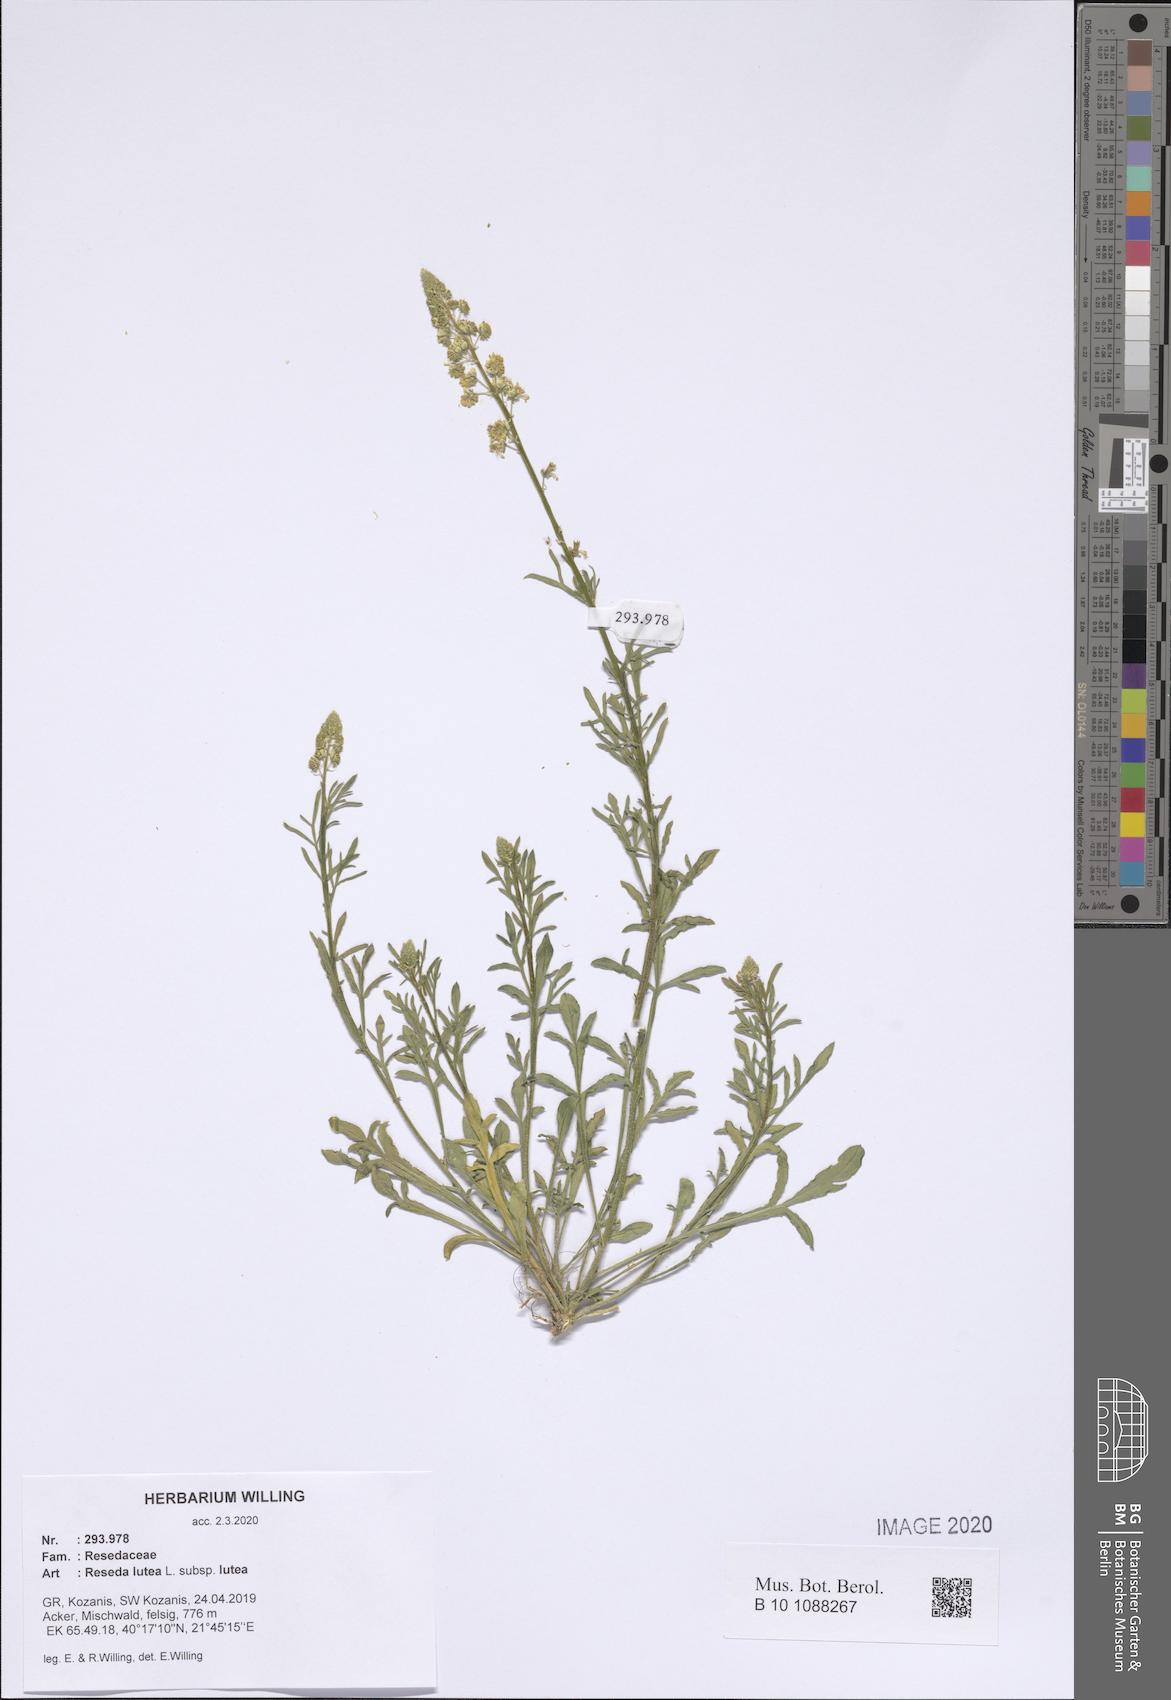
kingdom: Plantae
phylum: Tracheophyta
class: Magnoliopsida
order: Brassicales
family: Resedaceae
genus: Reseda
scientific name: Reseda lutea
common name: Wild mignonette
